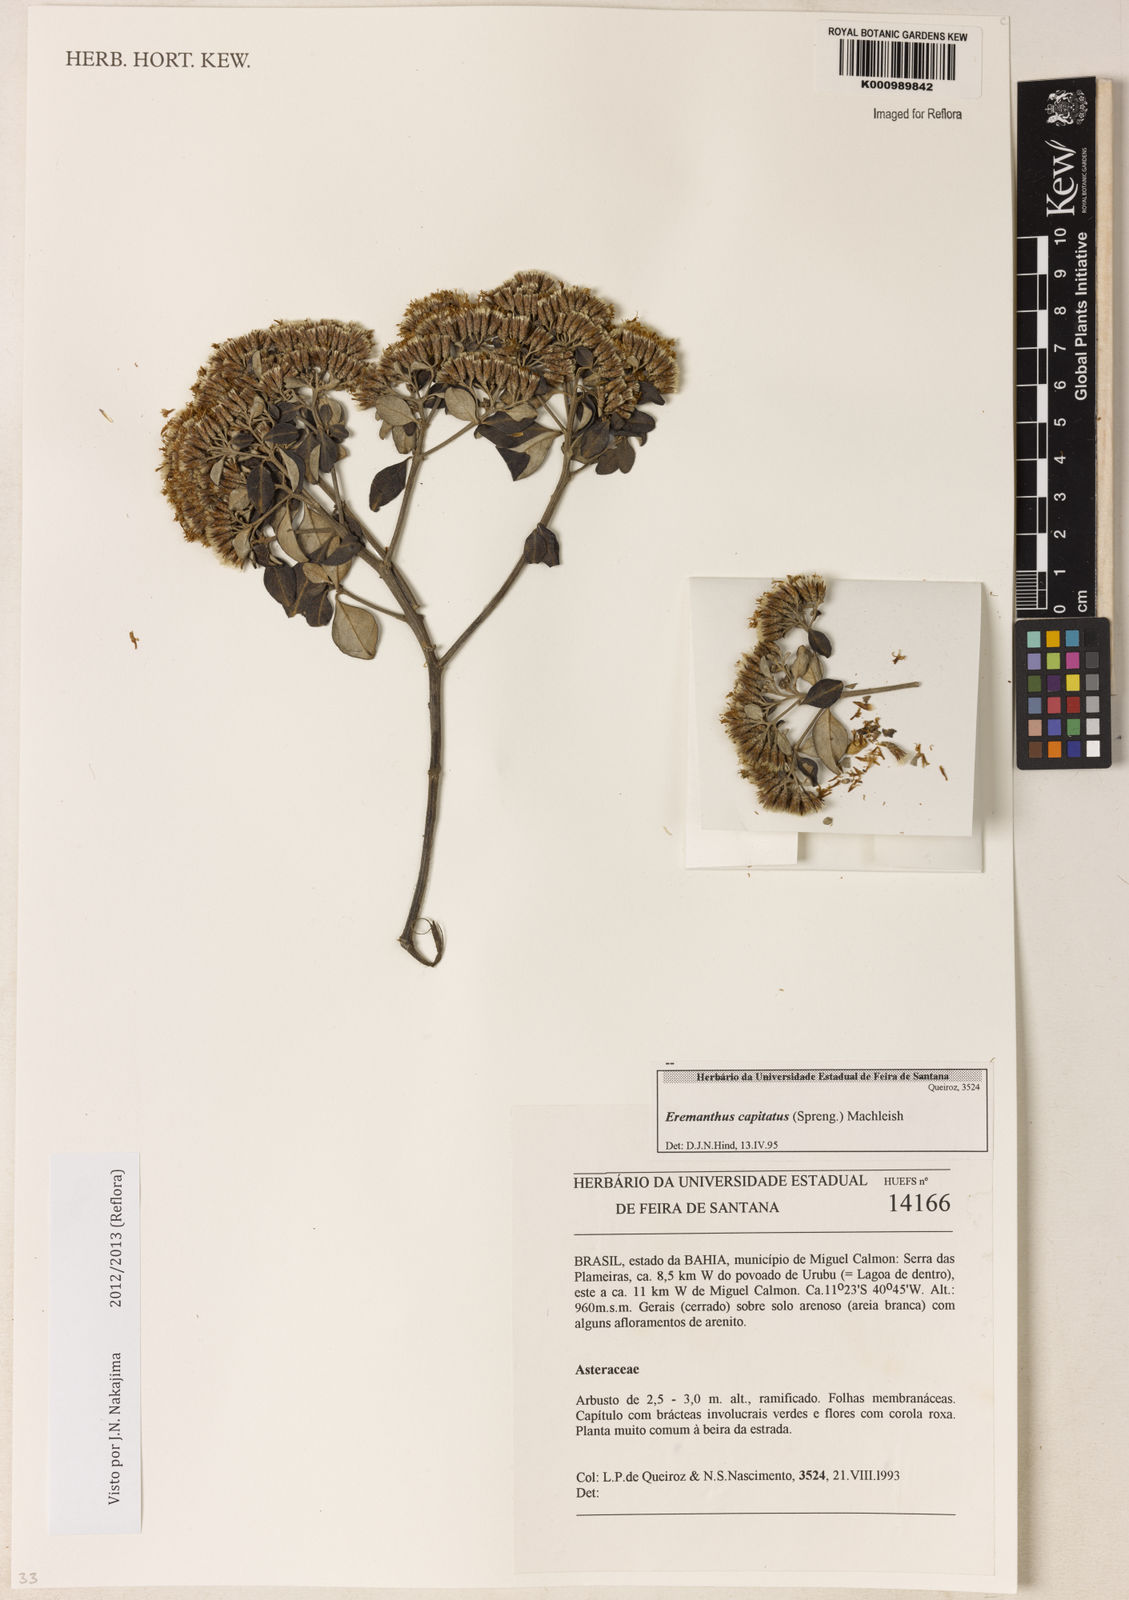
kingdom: Plantae
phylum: Tracheophyta
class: Magnoliopsida
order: Asterales
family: Asteraceae
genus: Eremanthus
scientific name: Eremanthus capitatus
